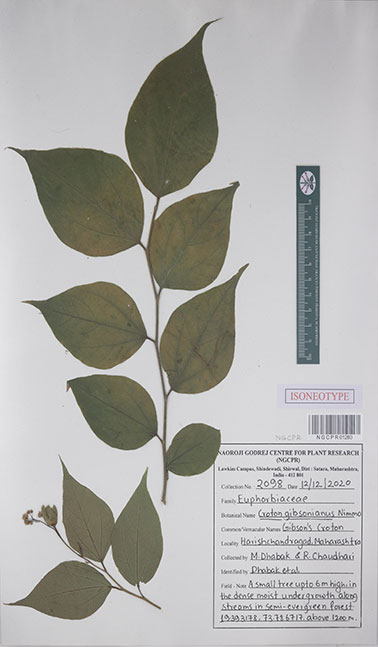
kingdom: Plantae
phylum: Tracheophyta
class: Magnoliopsida
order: Malpighiales
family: Euphorbiaceae
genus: Croton
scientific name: Croton gibsonianus
